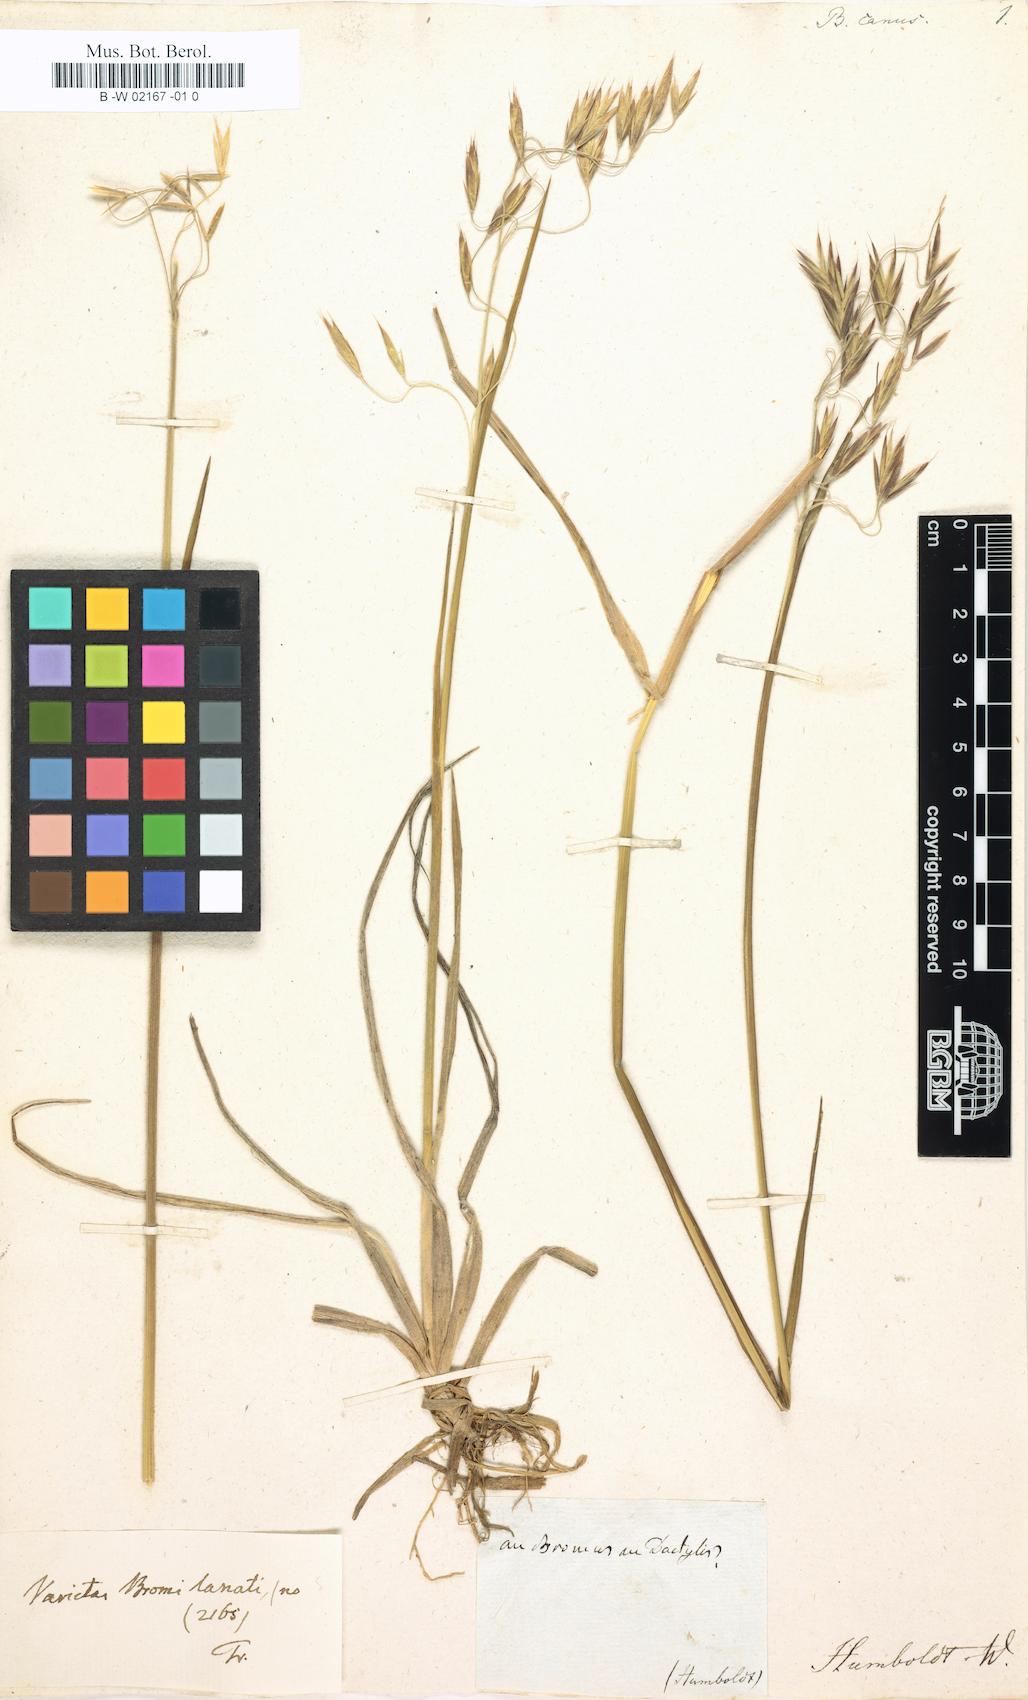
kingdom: Plantae
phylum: Tracheophyta
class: Liliopsida
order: Poales
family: Poaceae
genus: Bromus
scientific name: Bromus lanatus
